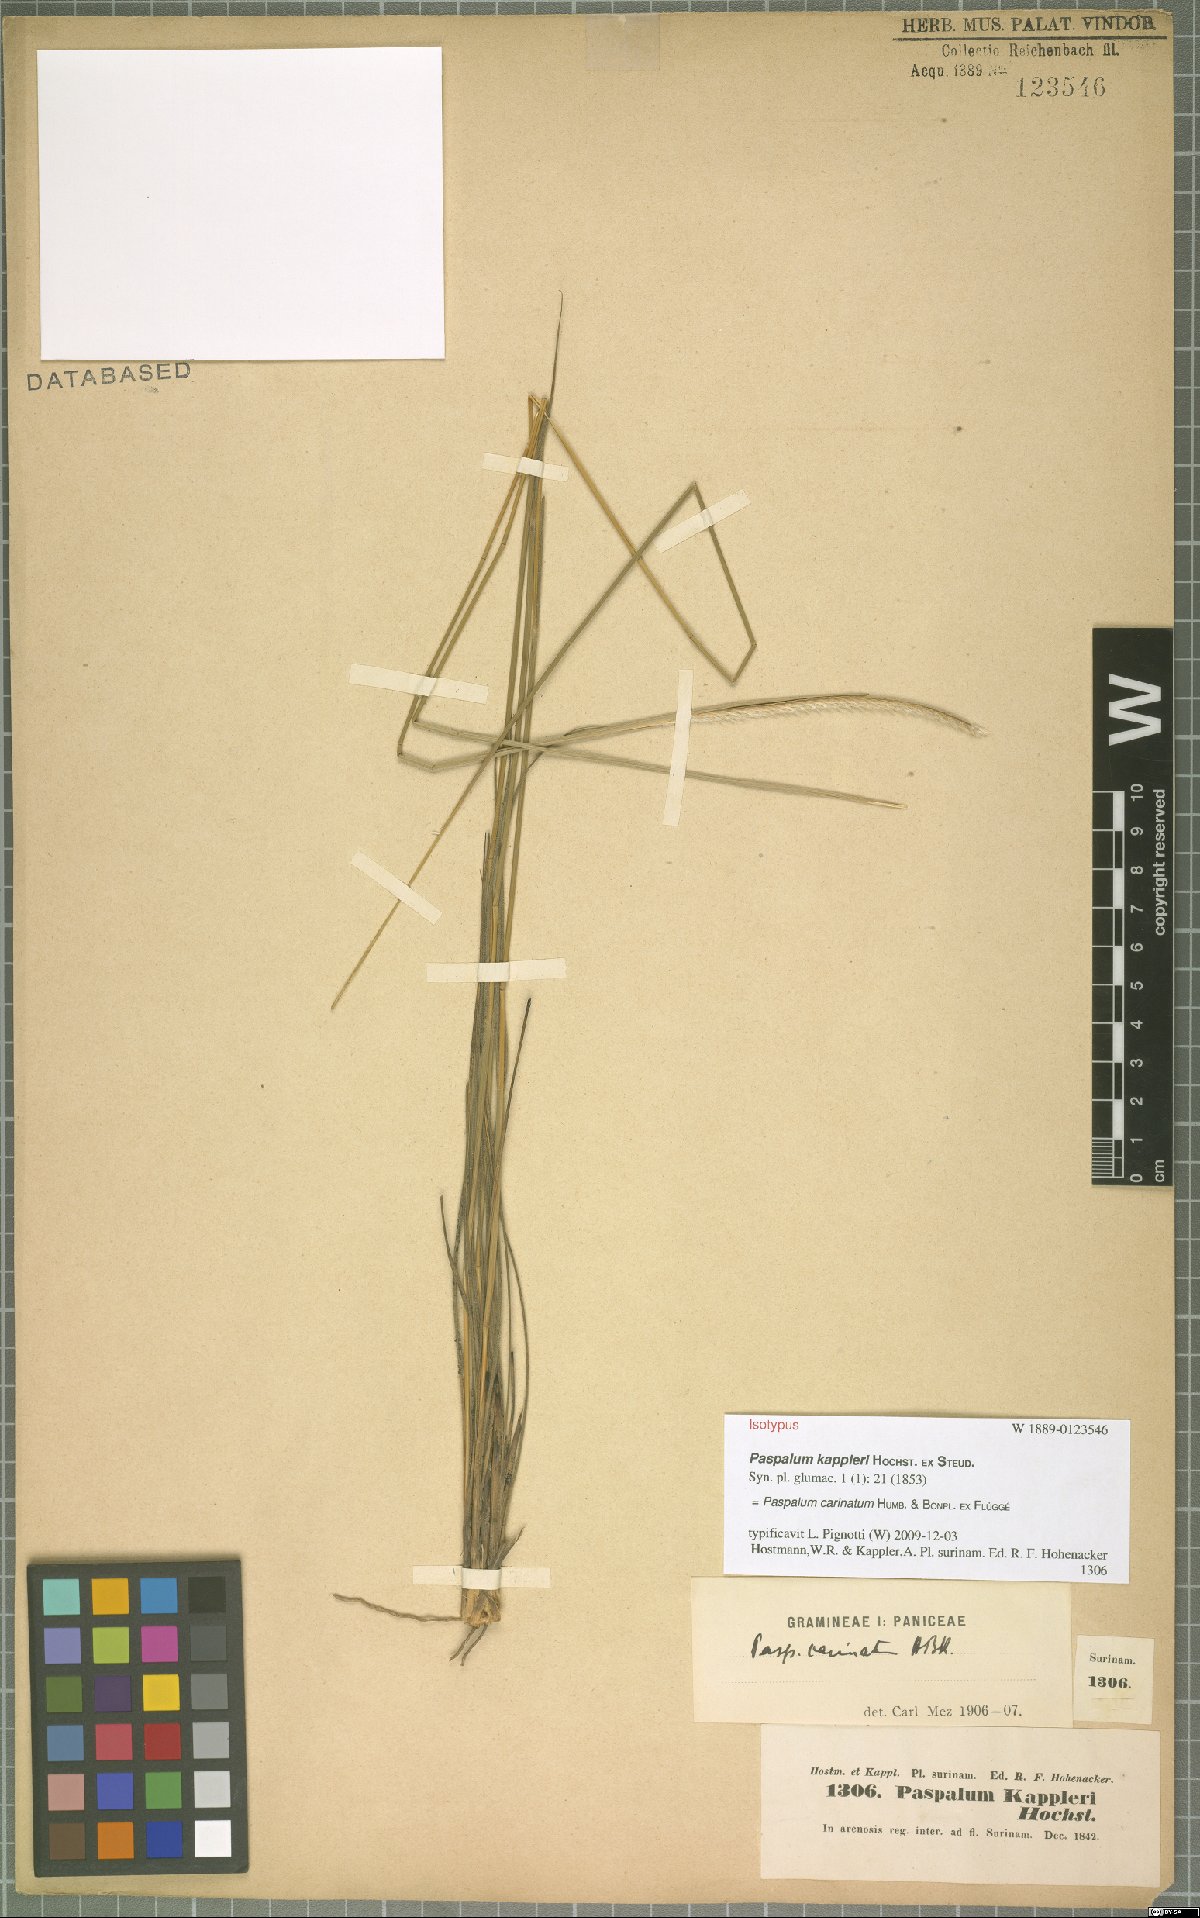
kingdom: Plantae
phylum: Tracheophyta
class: Liliopsida
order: Poales
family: Poaceae
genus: Paspalum
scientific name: Paspalum carinatum
